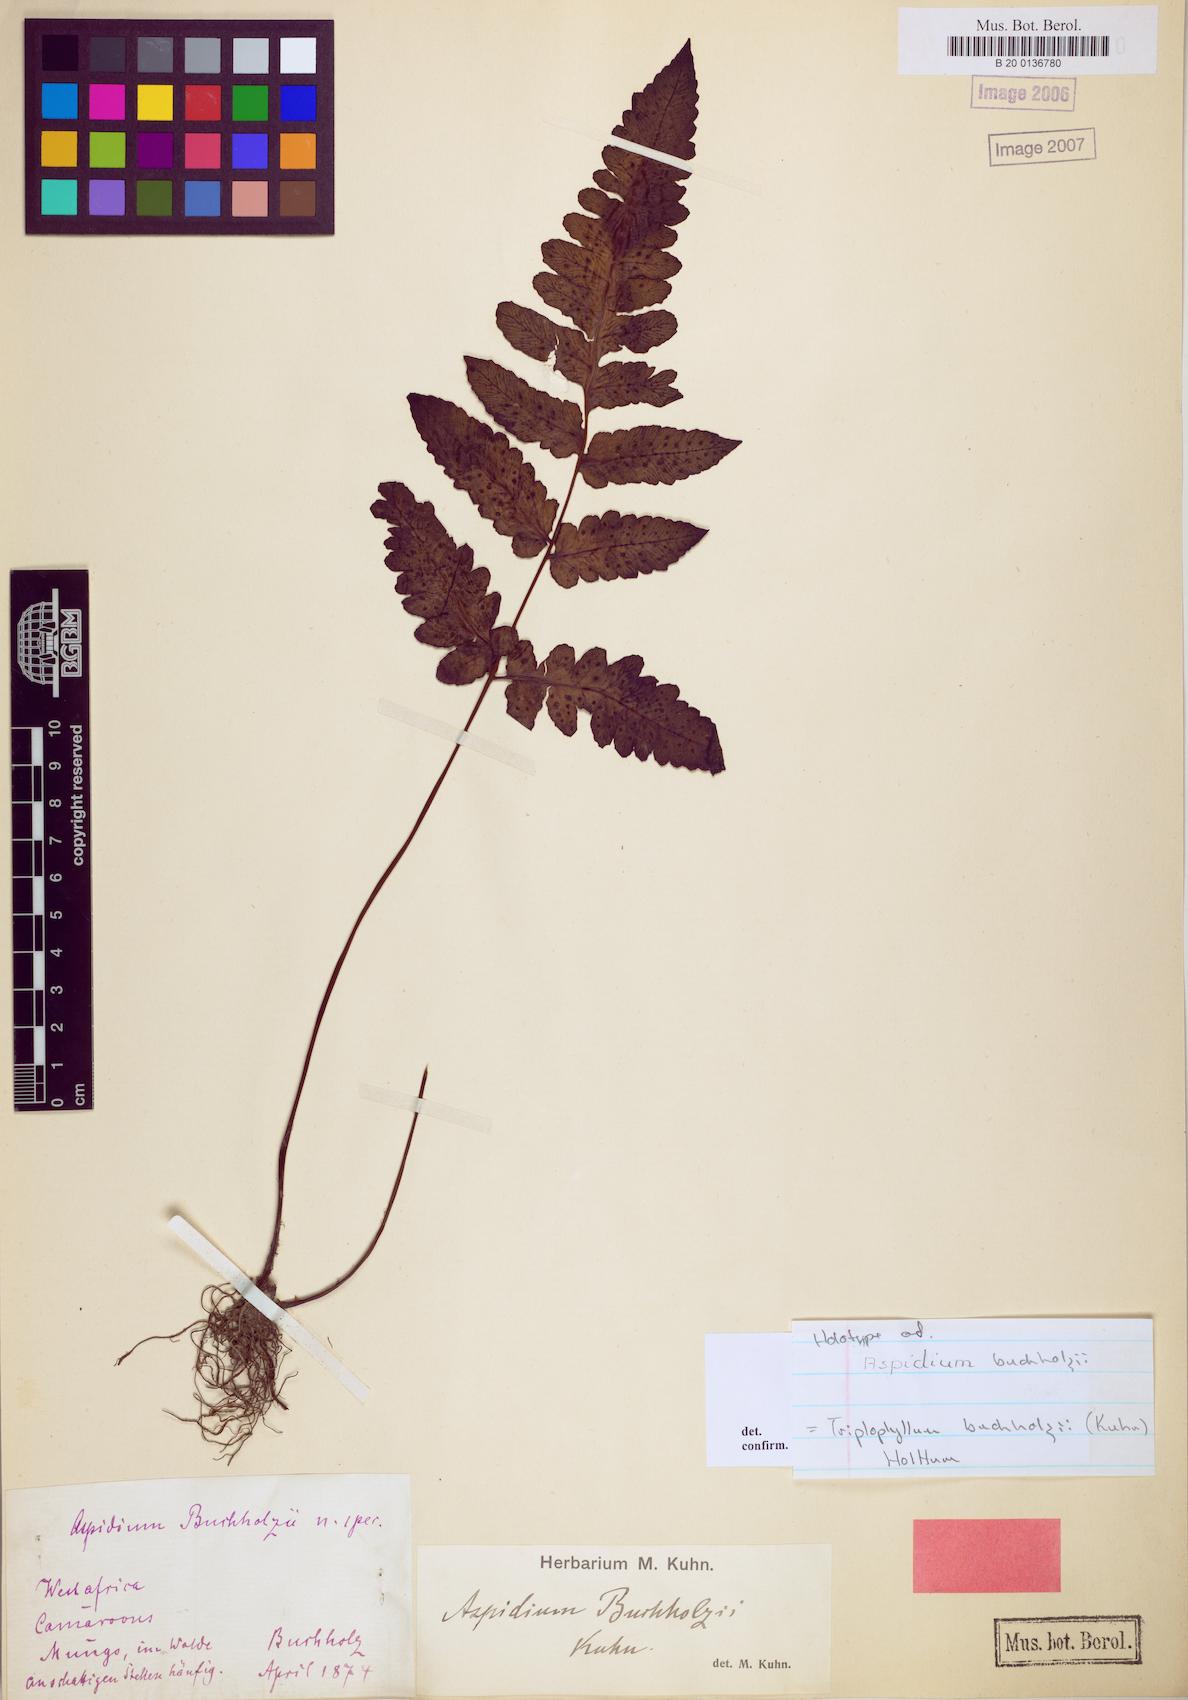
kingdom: Plantae
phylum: Tracheophyta
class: Polypodiopsida
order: Polypodiales
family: Tectariaceae
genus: Triplophyllum
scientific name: Triplophyllum buchholzii
